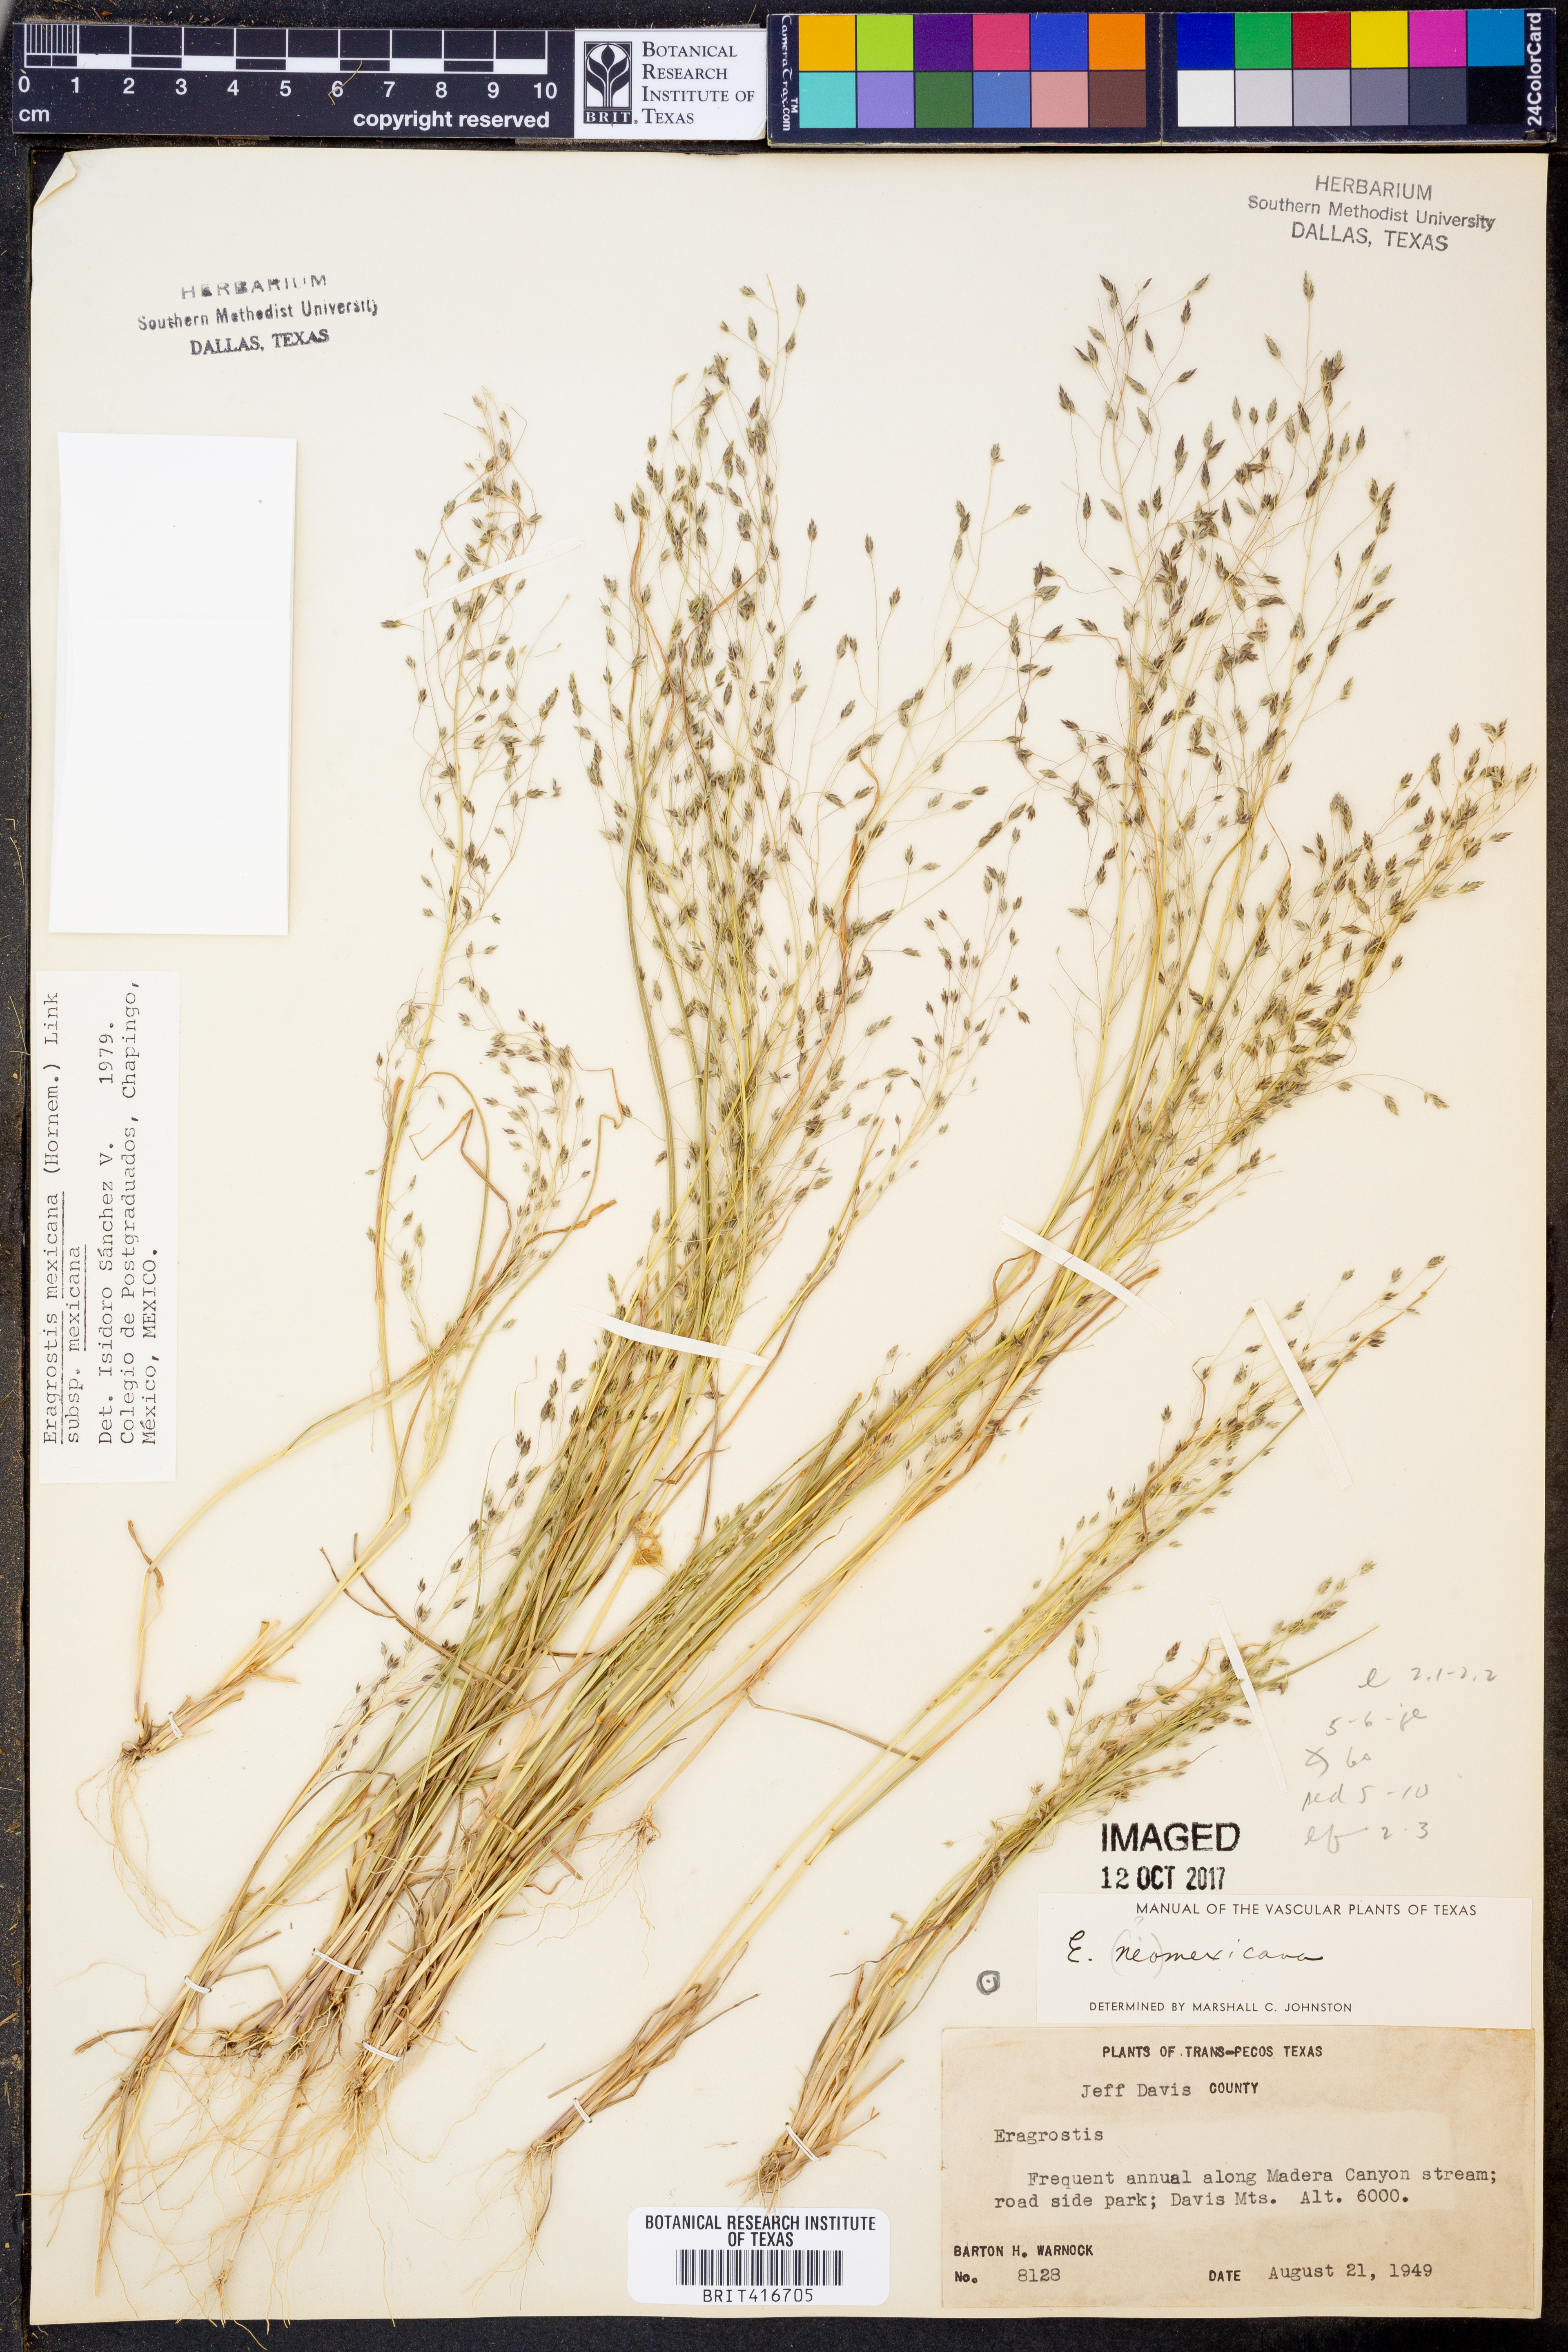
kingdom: Plantae
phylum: Tracheophyta
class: Liliopsida
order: Poales
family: Poaceae
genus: Eragrostis
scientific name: Eragrostis mexicana
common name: Mexican love grass
